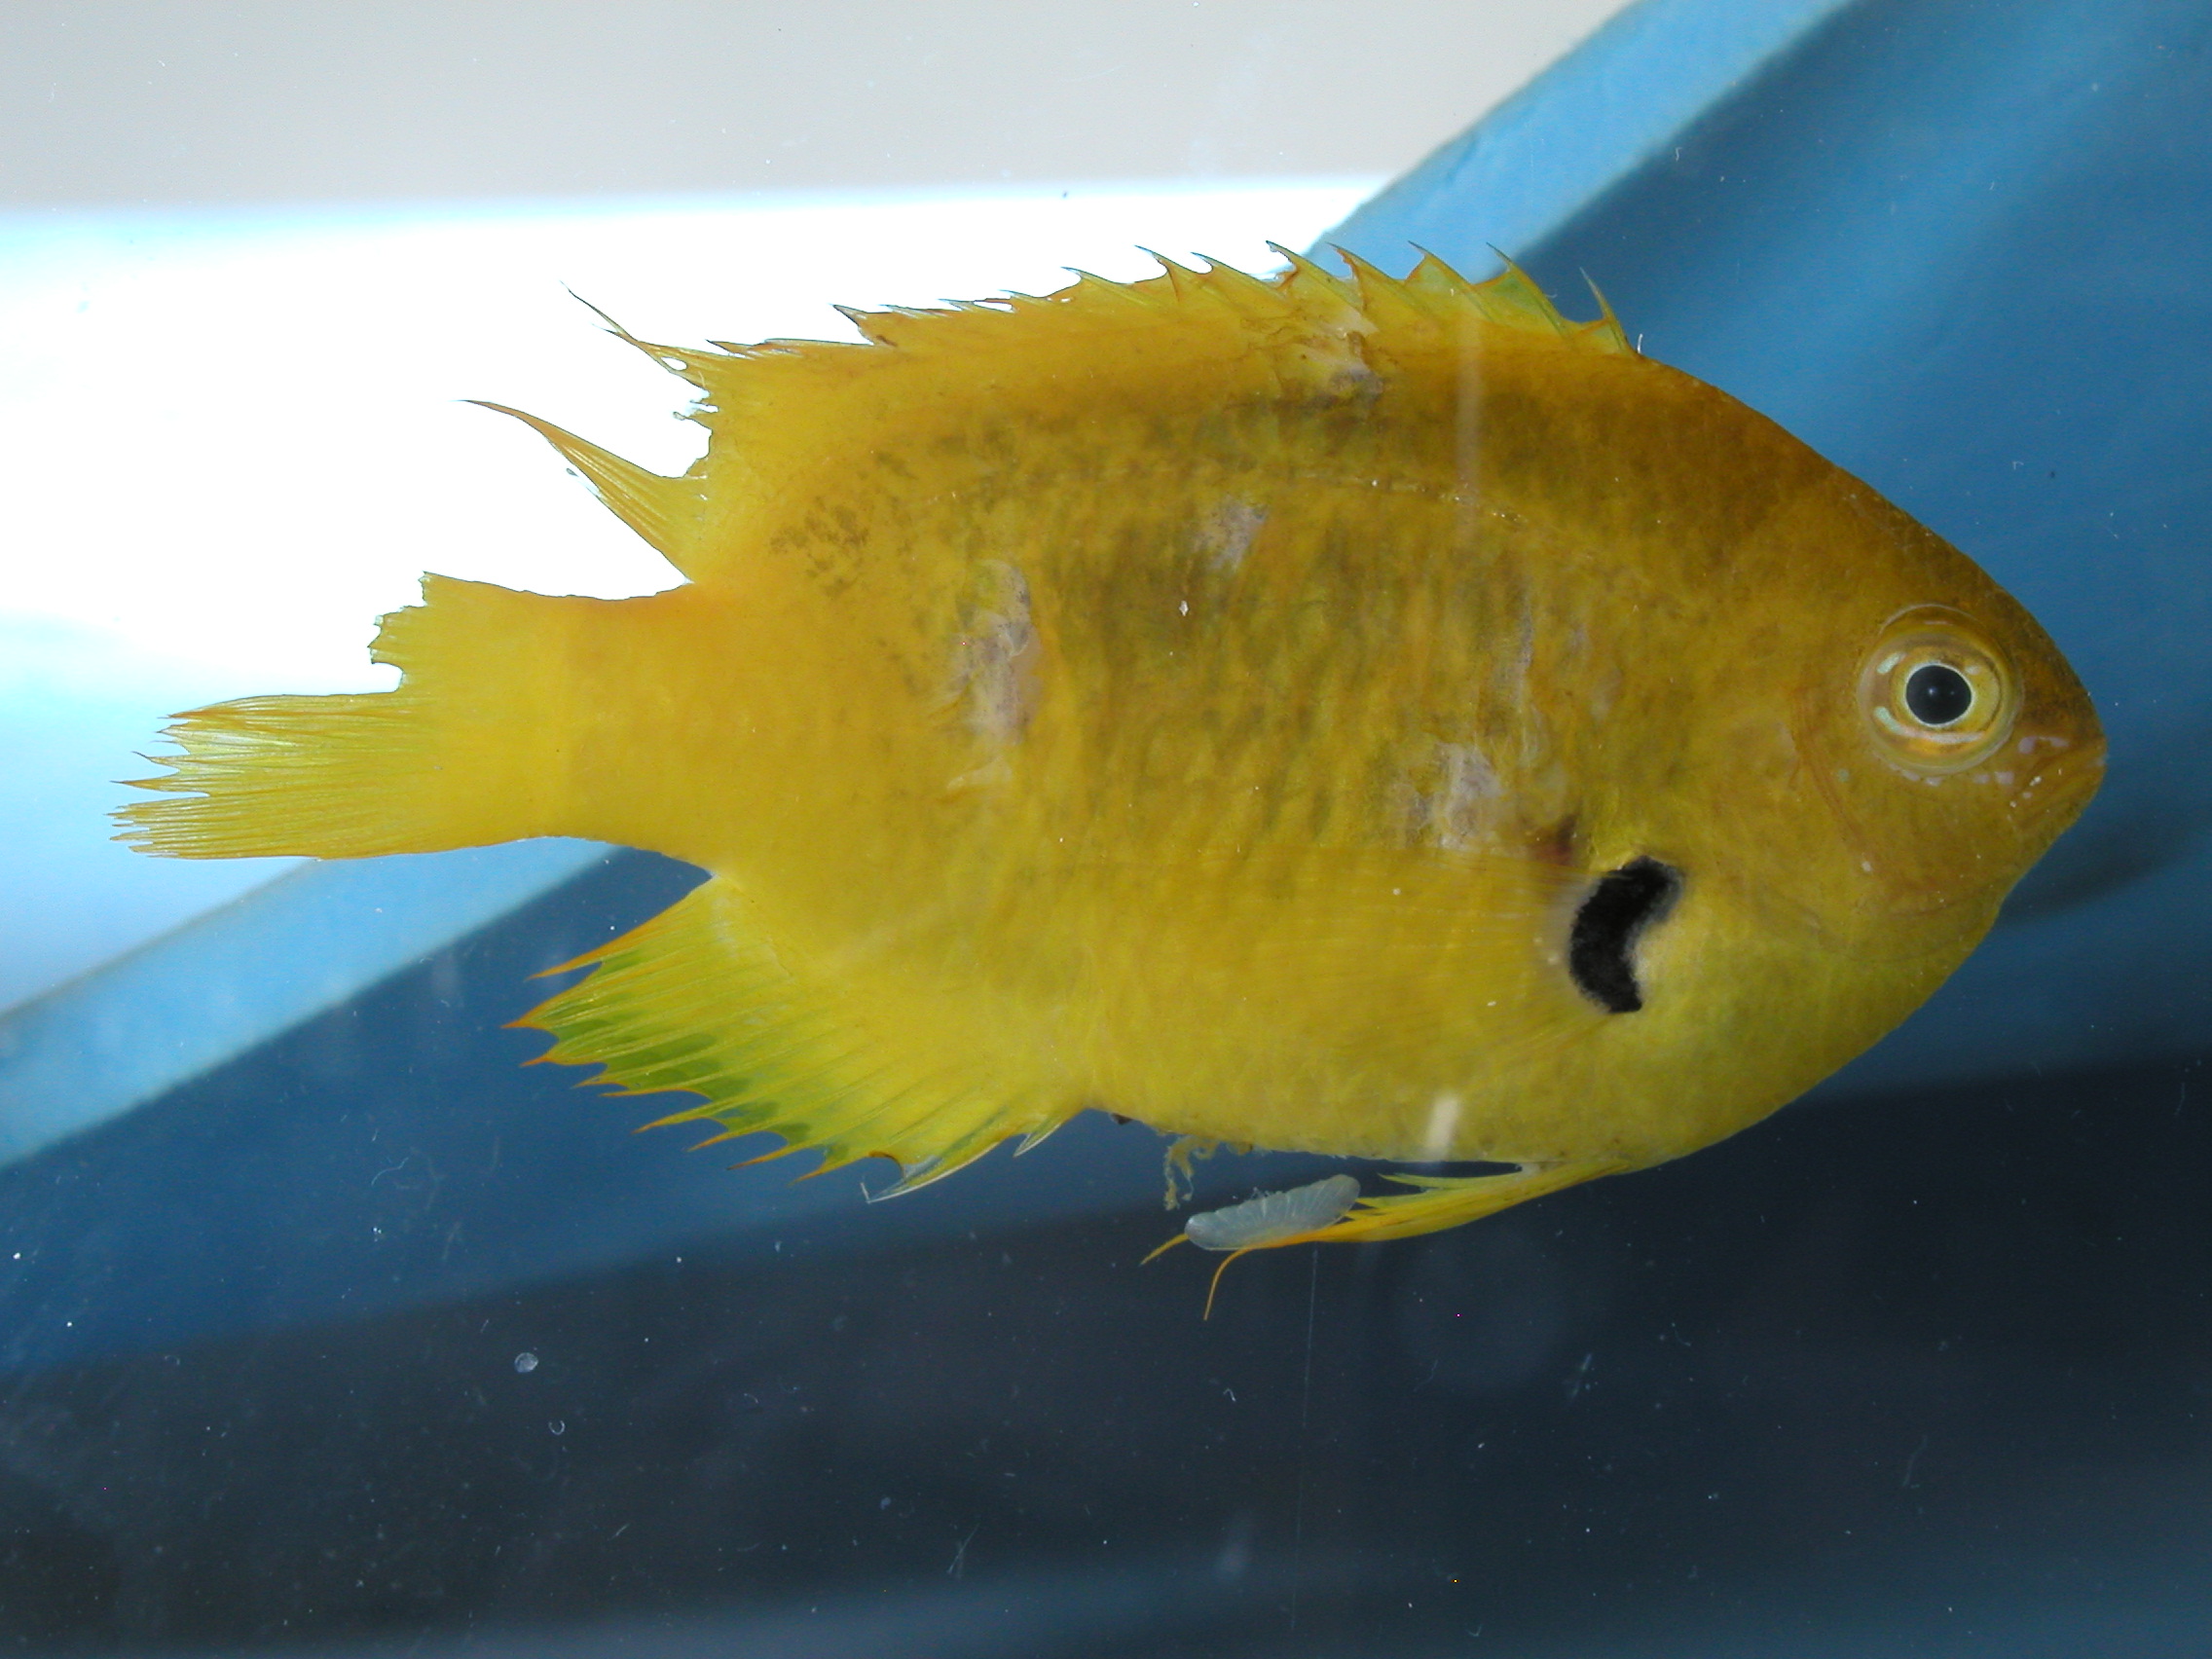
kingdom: Animalia
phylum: Chordata
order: Perciformes
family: Pomacentridae
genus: Pomacentrus
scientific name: Pomacentrus sulfureus
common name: Sulfur damsel
